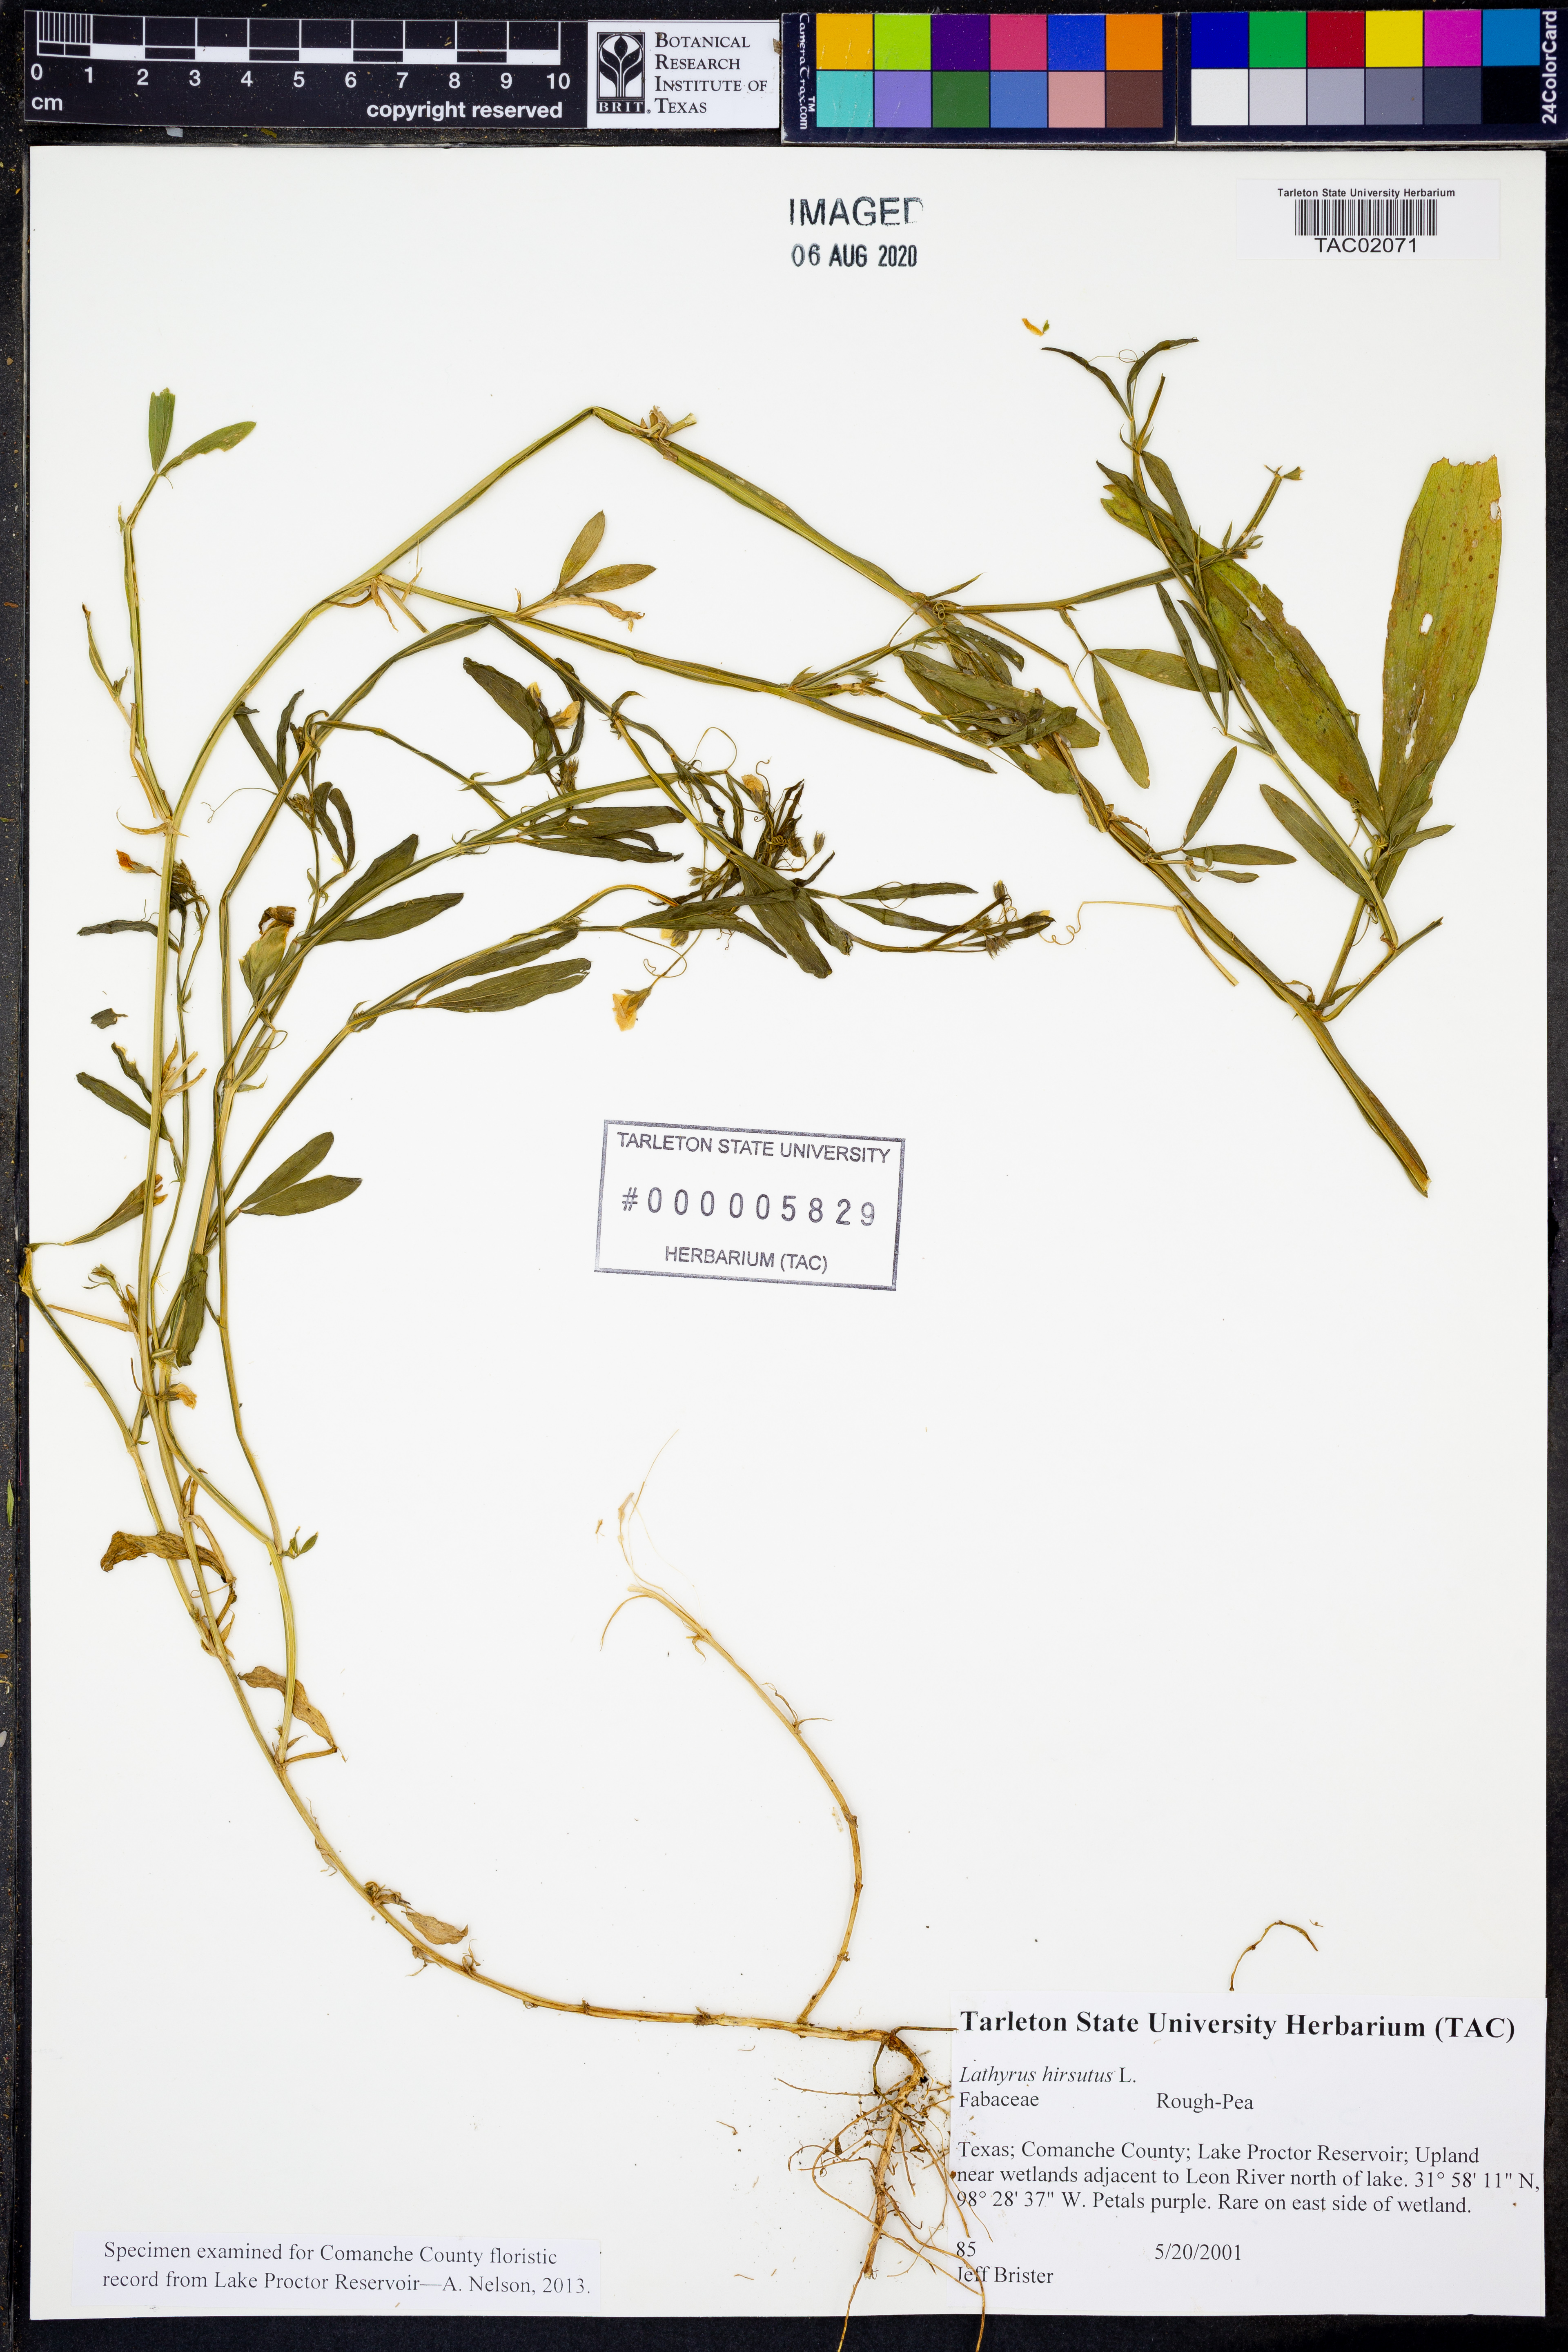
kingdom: Plantae
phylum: Tracheophyta
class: Magnoliopsida
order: Fabales
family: Fabaceae
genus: Lathyrus
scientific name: Lathyrus hirsutus
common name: Hairy vetchling
